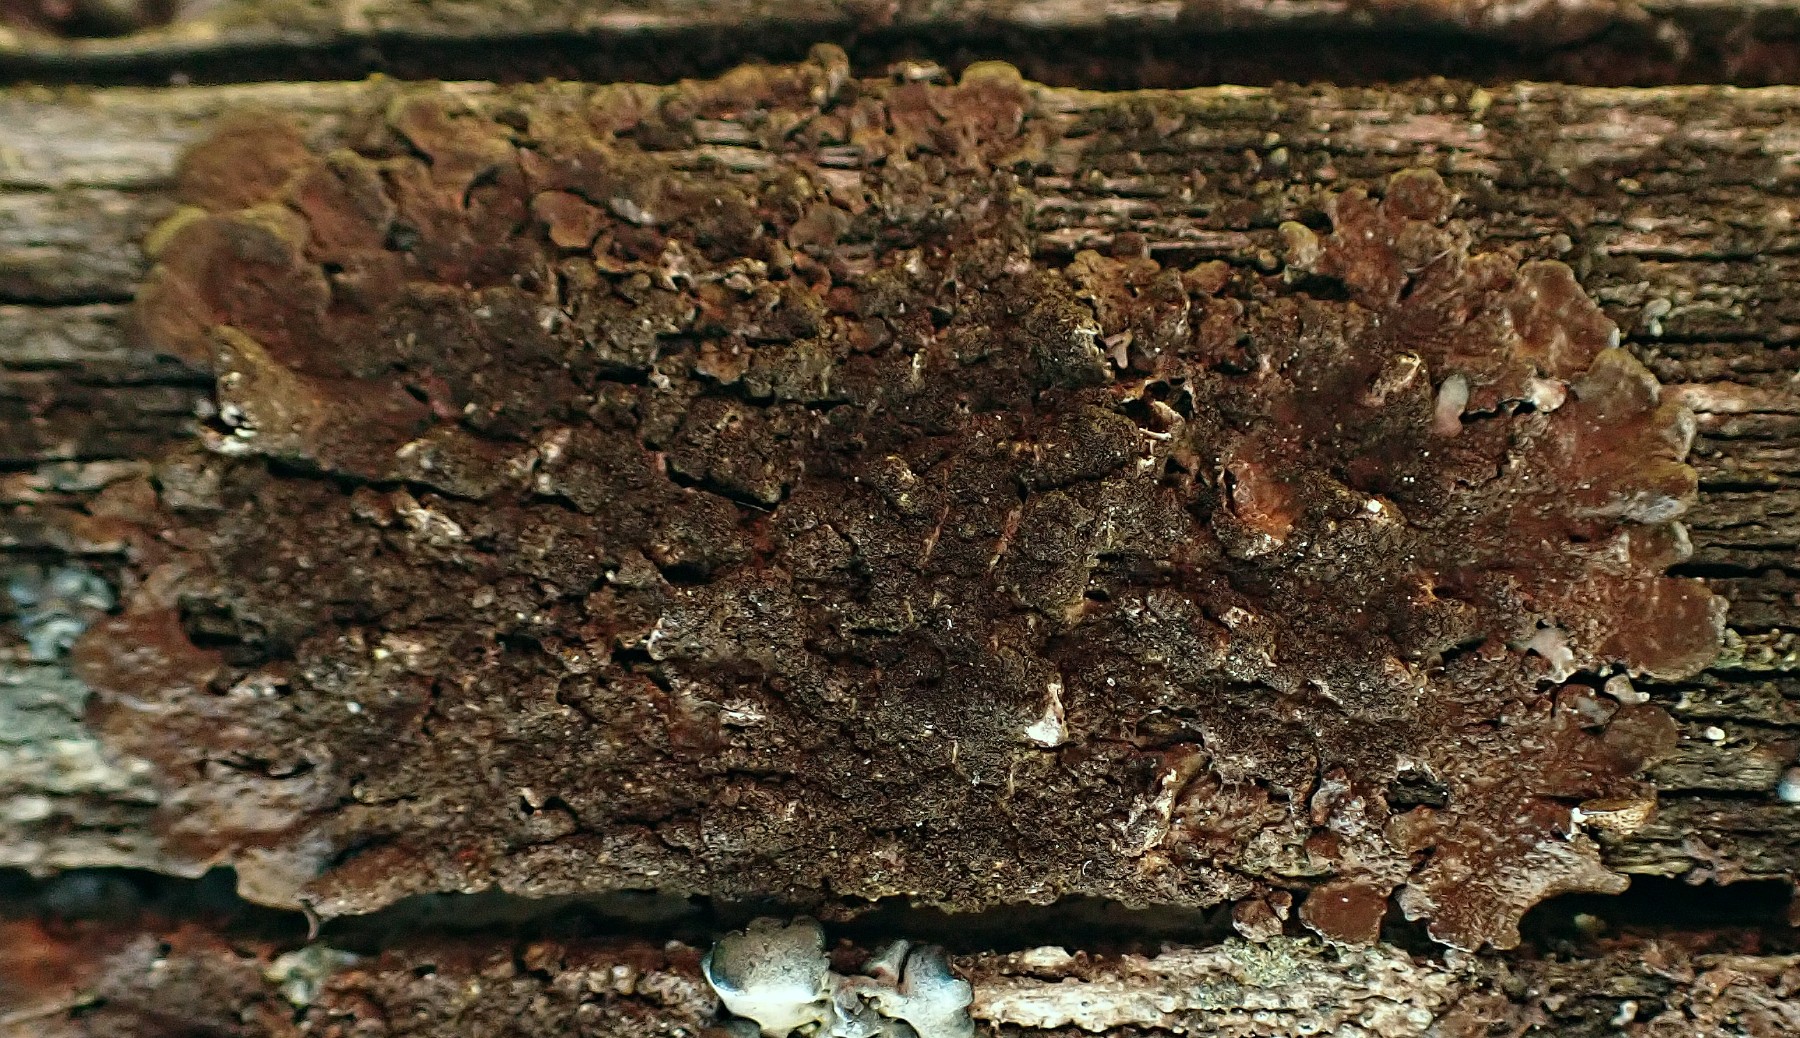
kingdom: Fungi
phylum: Ascomycota
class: Lecanoromycetes
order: Lecanorales
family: Parmeliaceae
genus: Melanelixia
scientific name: Melanelixia subaurifera
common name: guldpudret skållav
